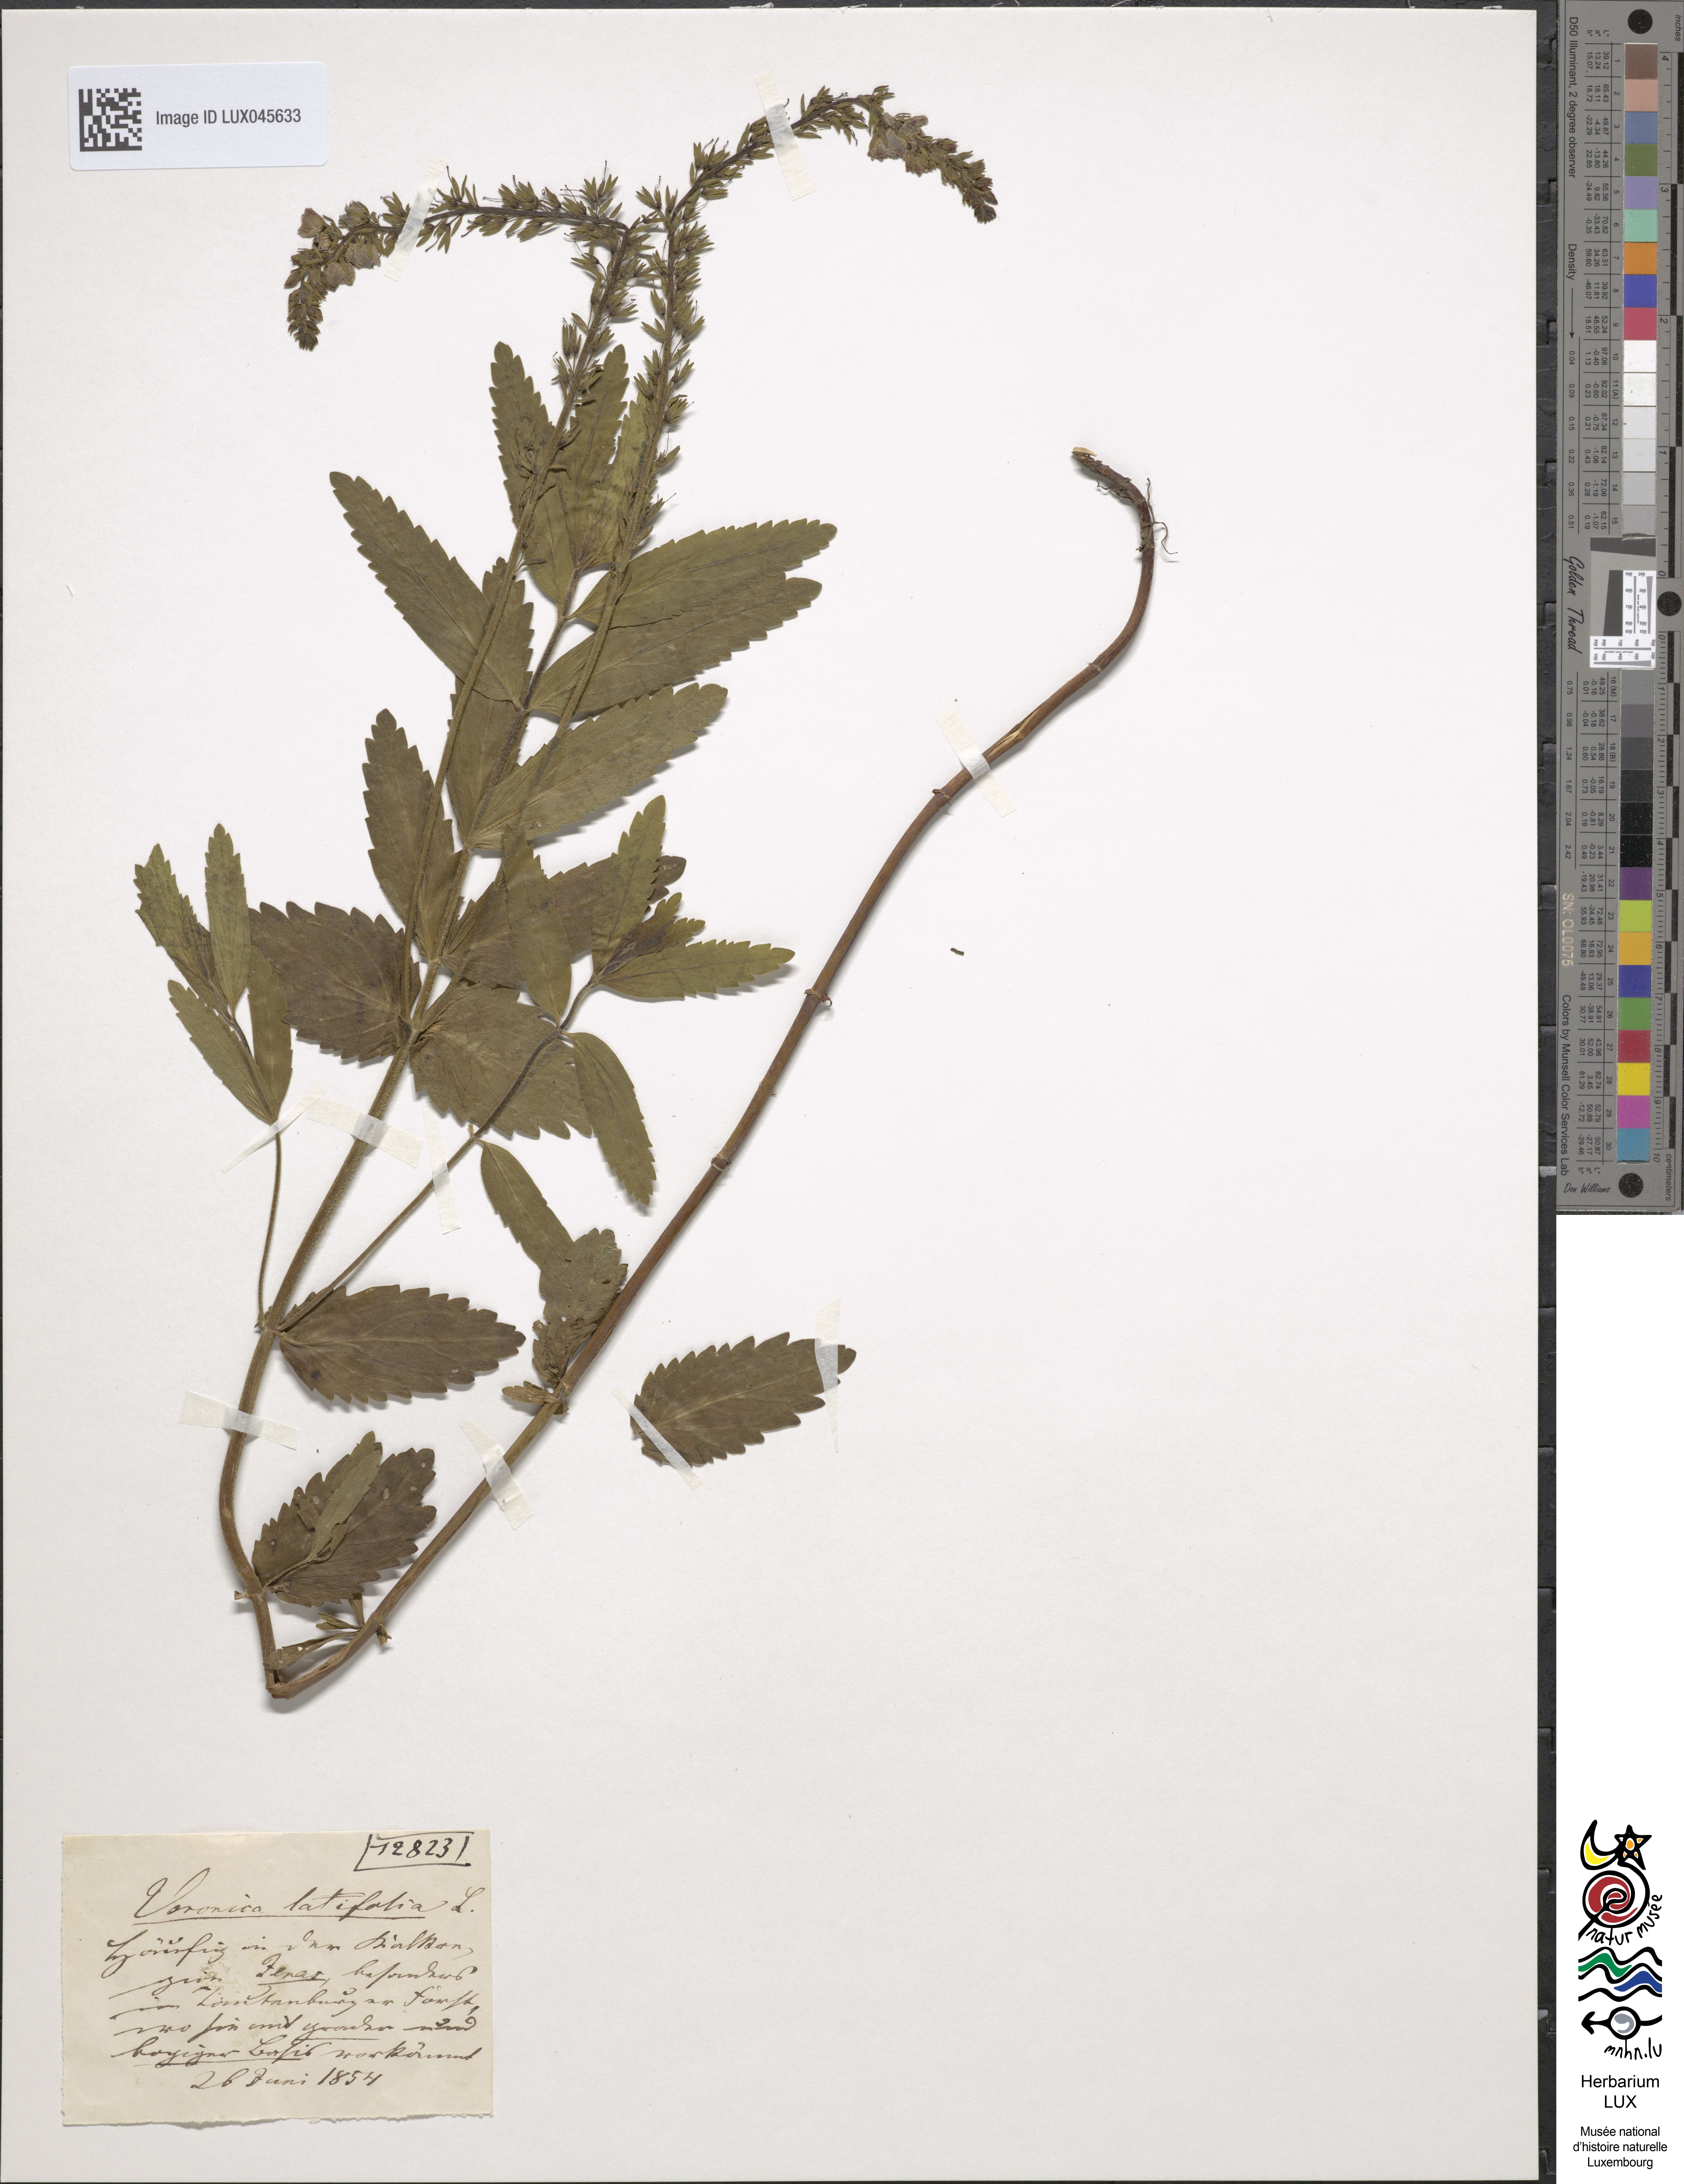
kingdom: Plantae
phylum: Tracheophyta
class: Magnoliopsida
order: Lamiales
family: Plantaginaceae
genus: Veronica
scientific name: Veronica urticifolia
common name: Nettle-leaf speedwell
